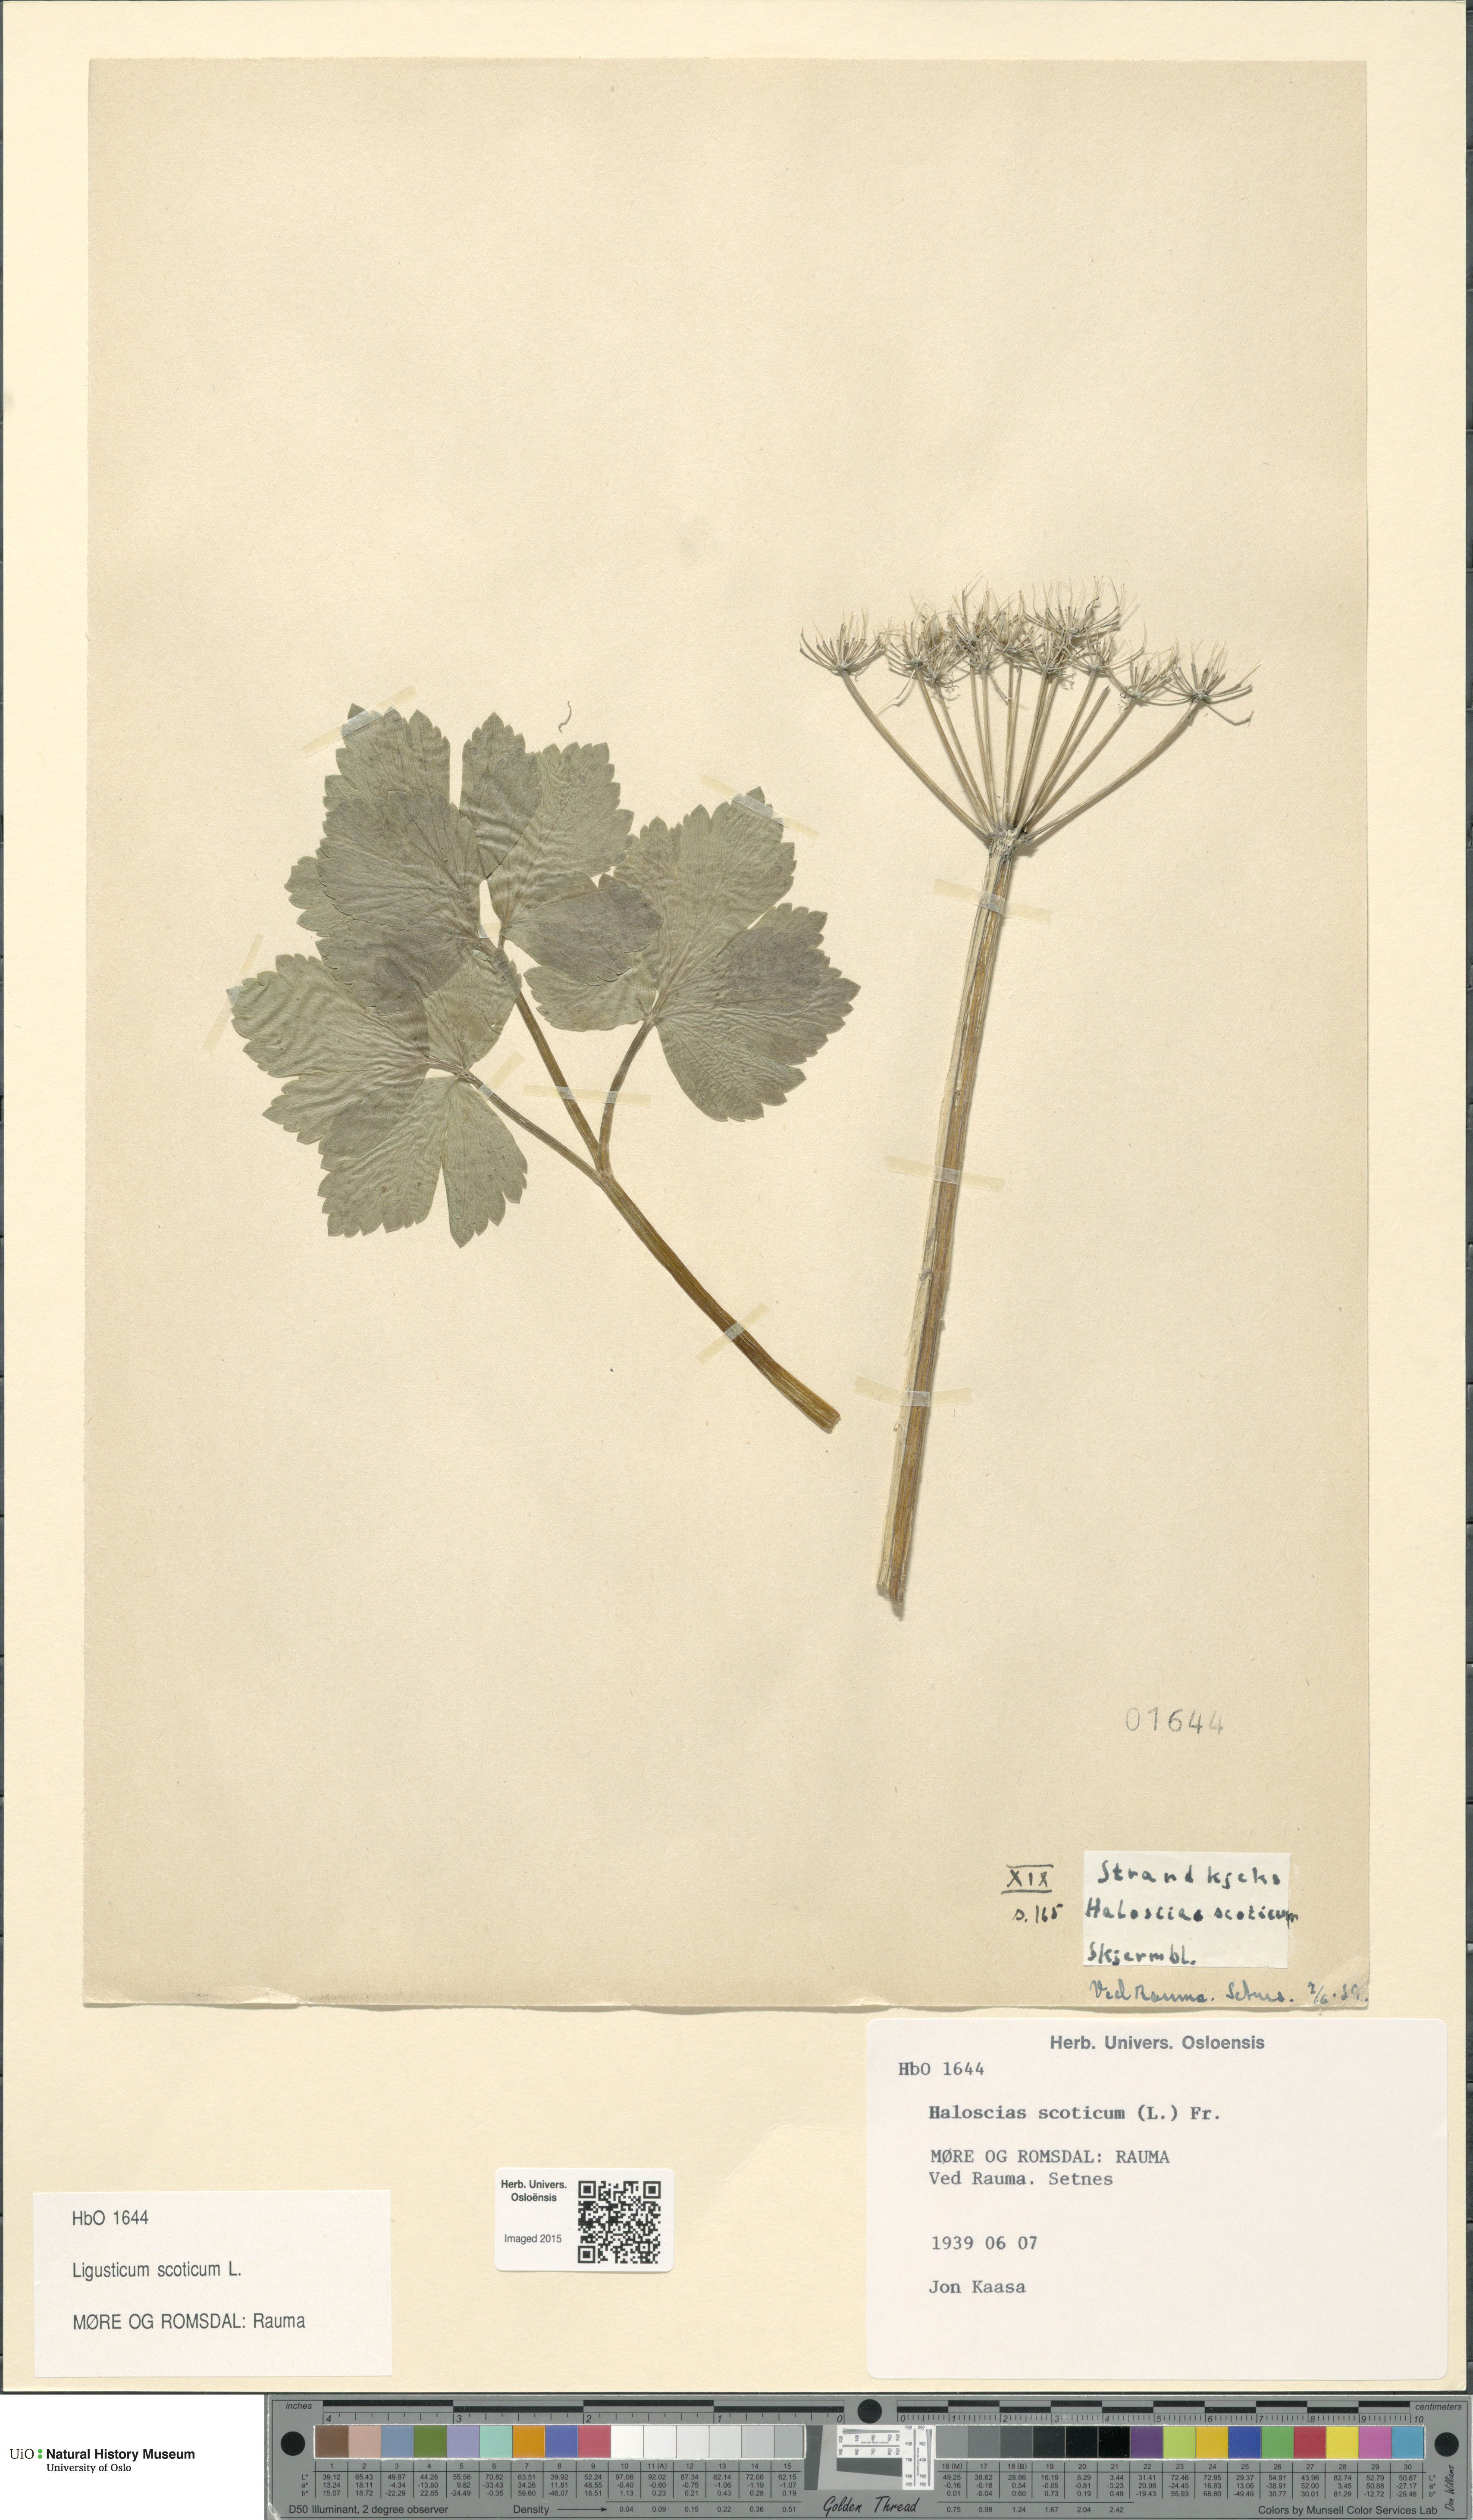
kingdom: Plantae
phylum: Tracheophyta
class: Magnoliopsida
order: Apiales
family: Apiaceae
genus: Ligusticum
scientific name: Ligusticum scothicum
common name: Beach lovage
